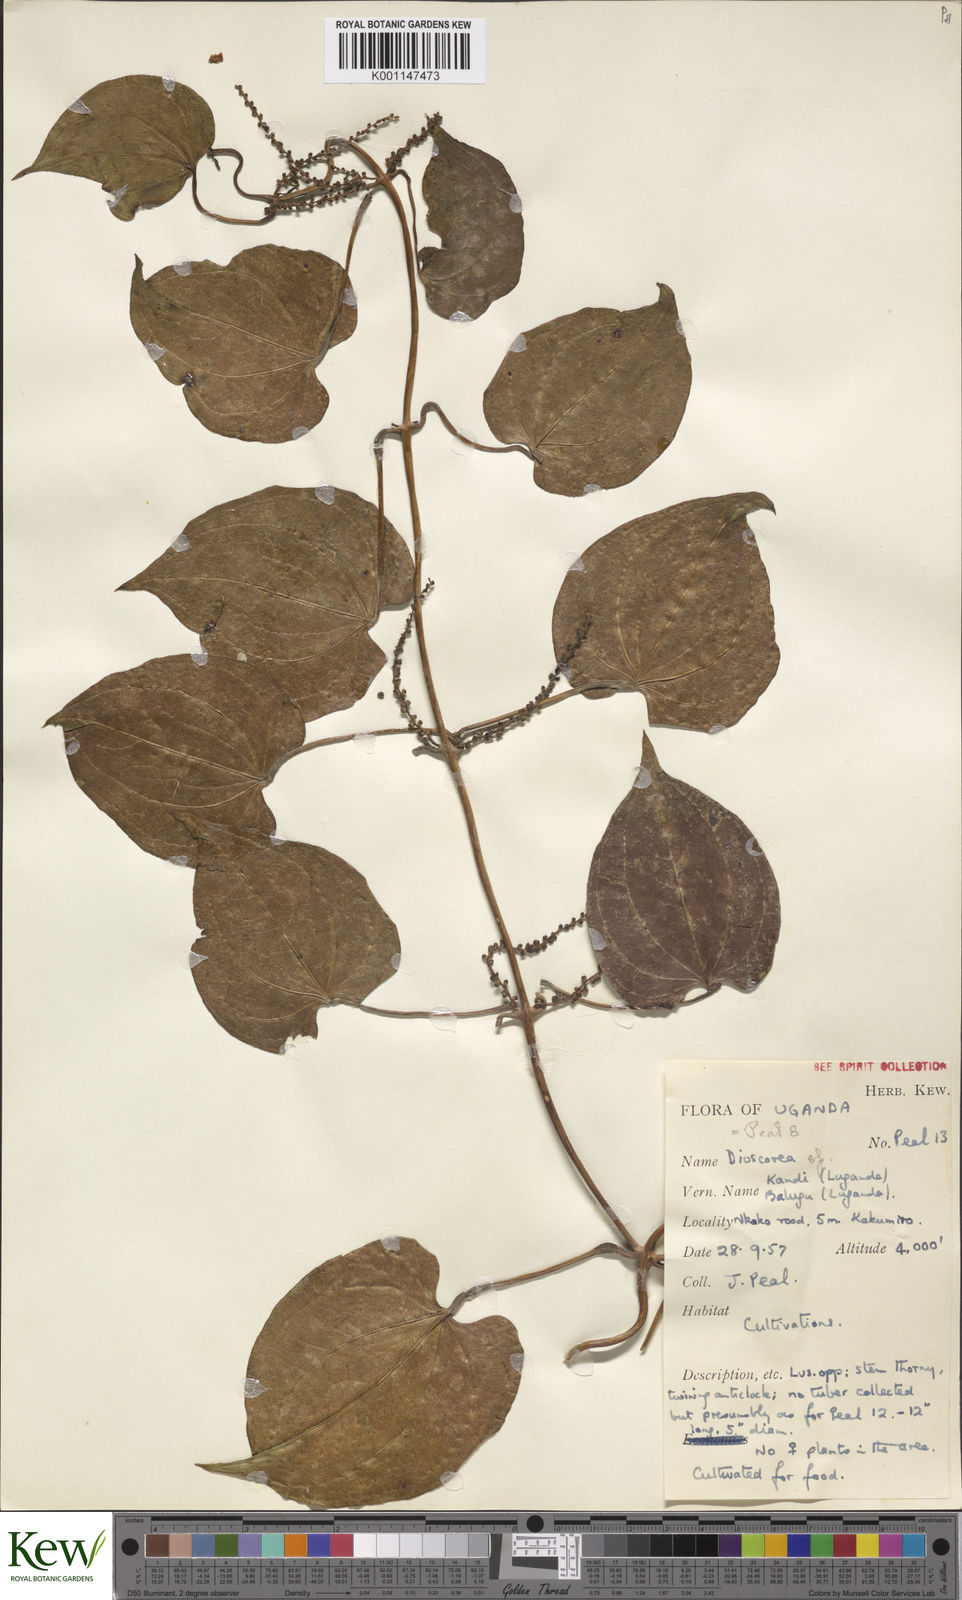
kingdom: Plantae
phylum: Tracheophyta
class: Liliopsida
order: Dioscoreales
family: Dioscoreaceae
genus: Dioscorea
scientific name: Dioscorea
